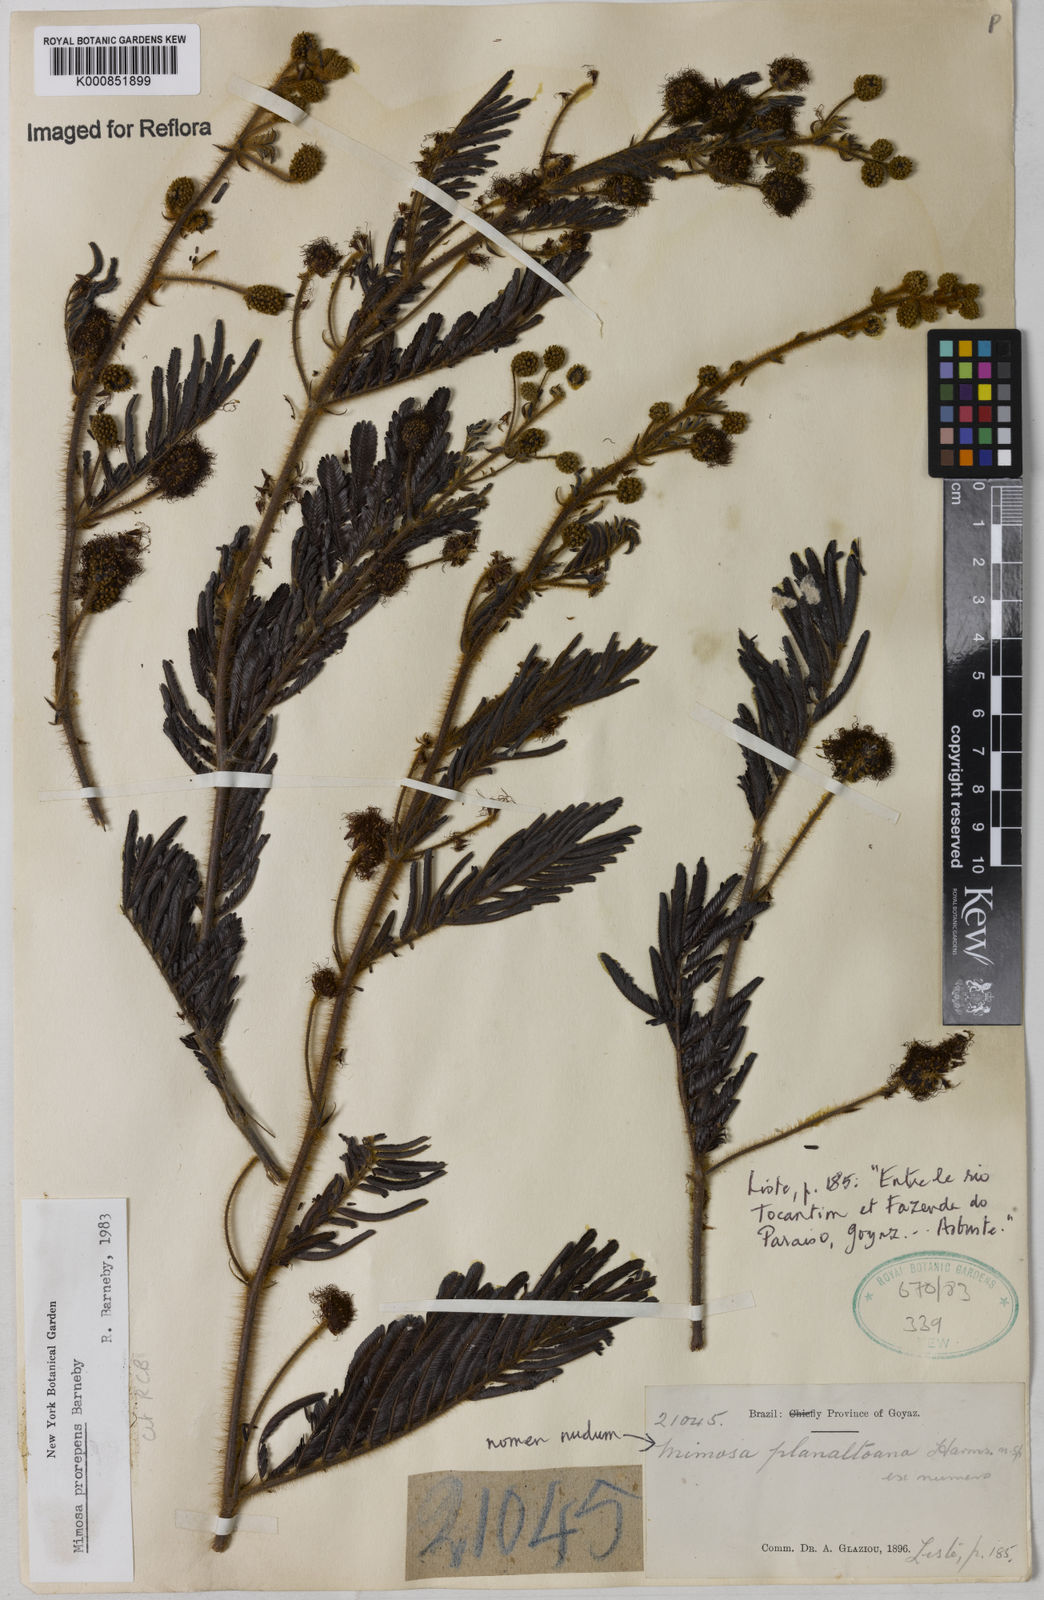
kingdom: Plantae
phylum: Tracheophyta
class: Magnoliopsida
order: Fabales
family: Fabaceae
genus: Mimosa
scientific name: Mimosa prorepens
